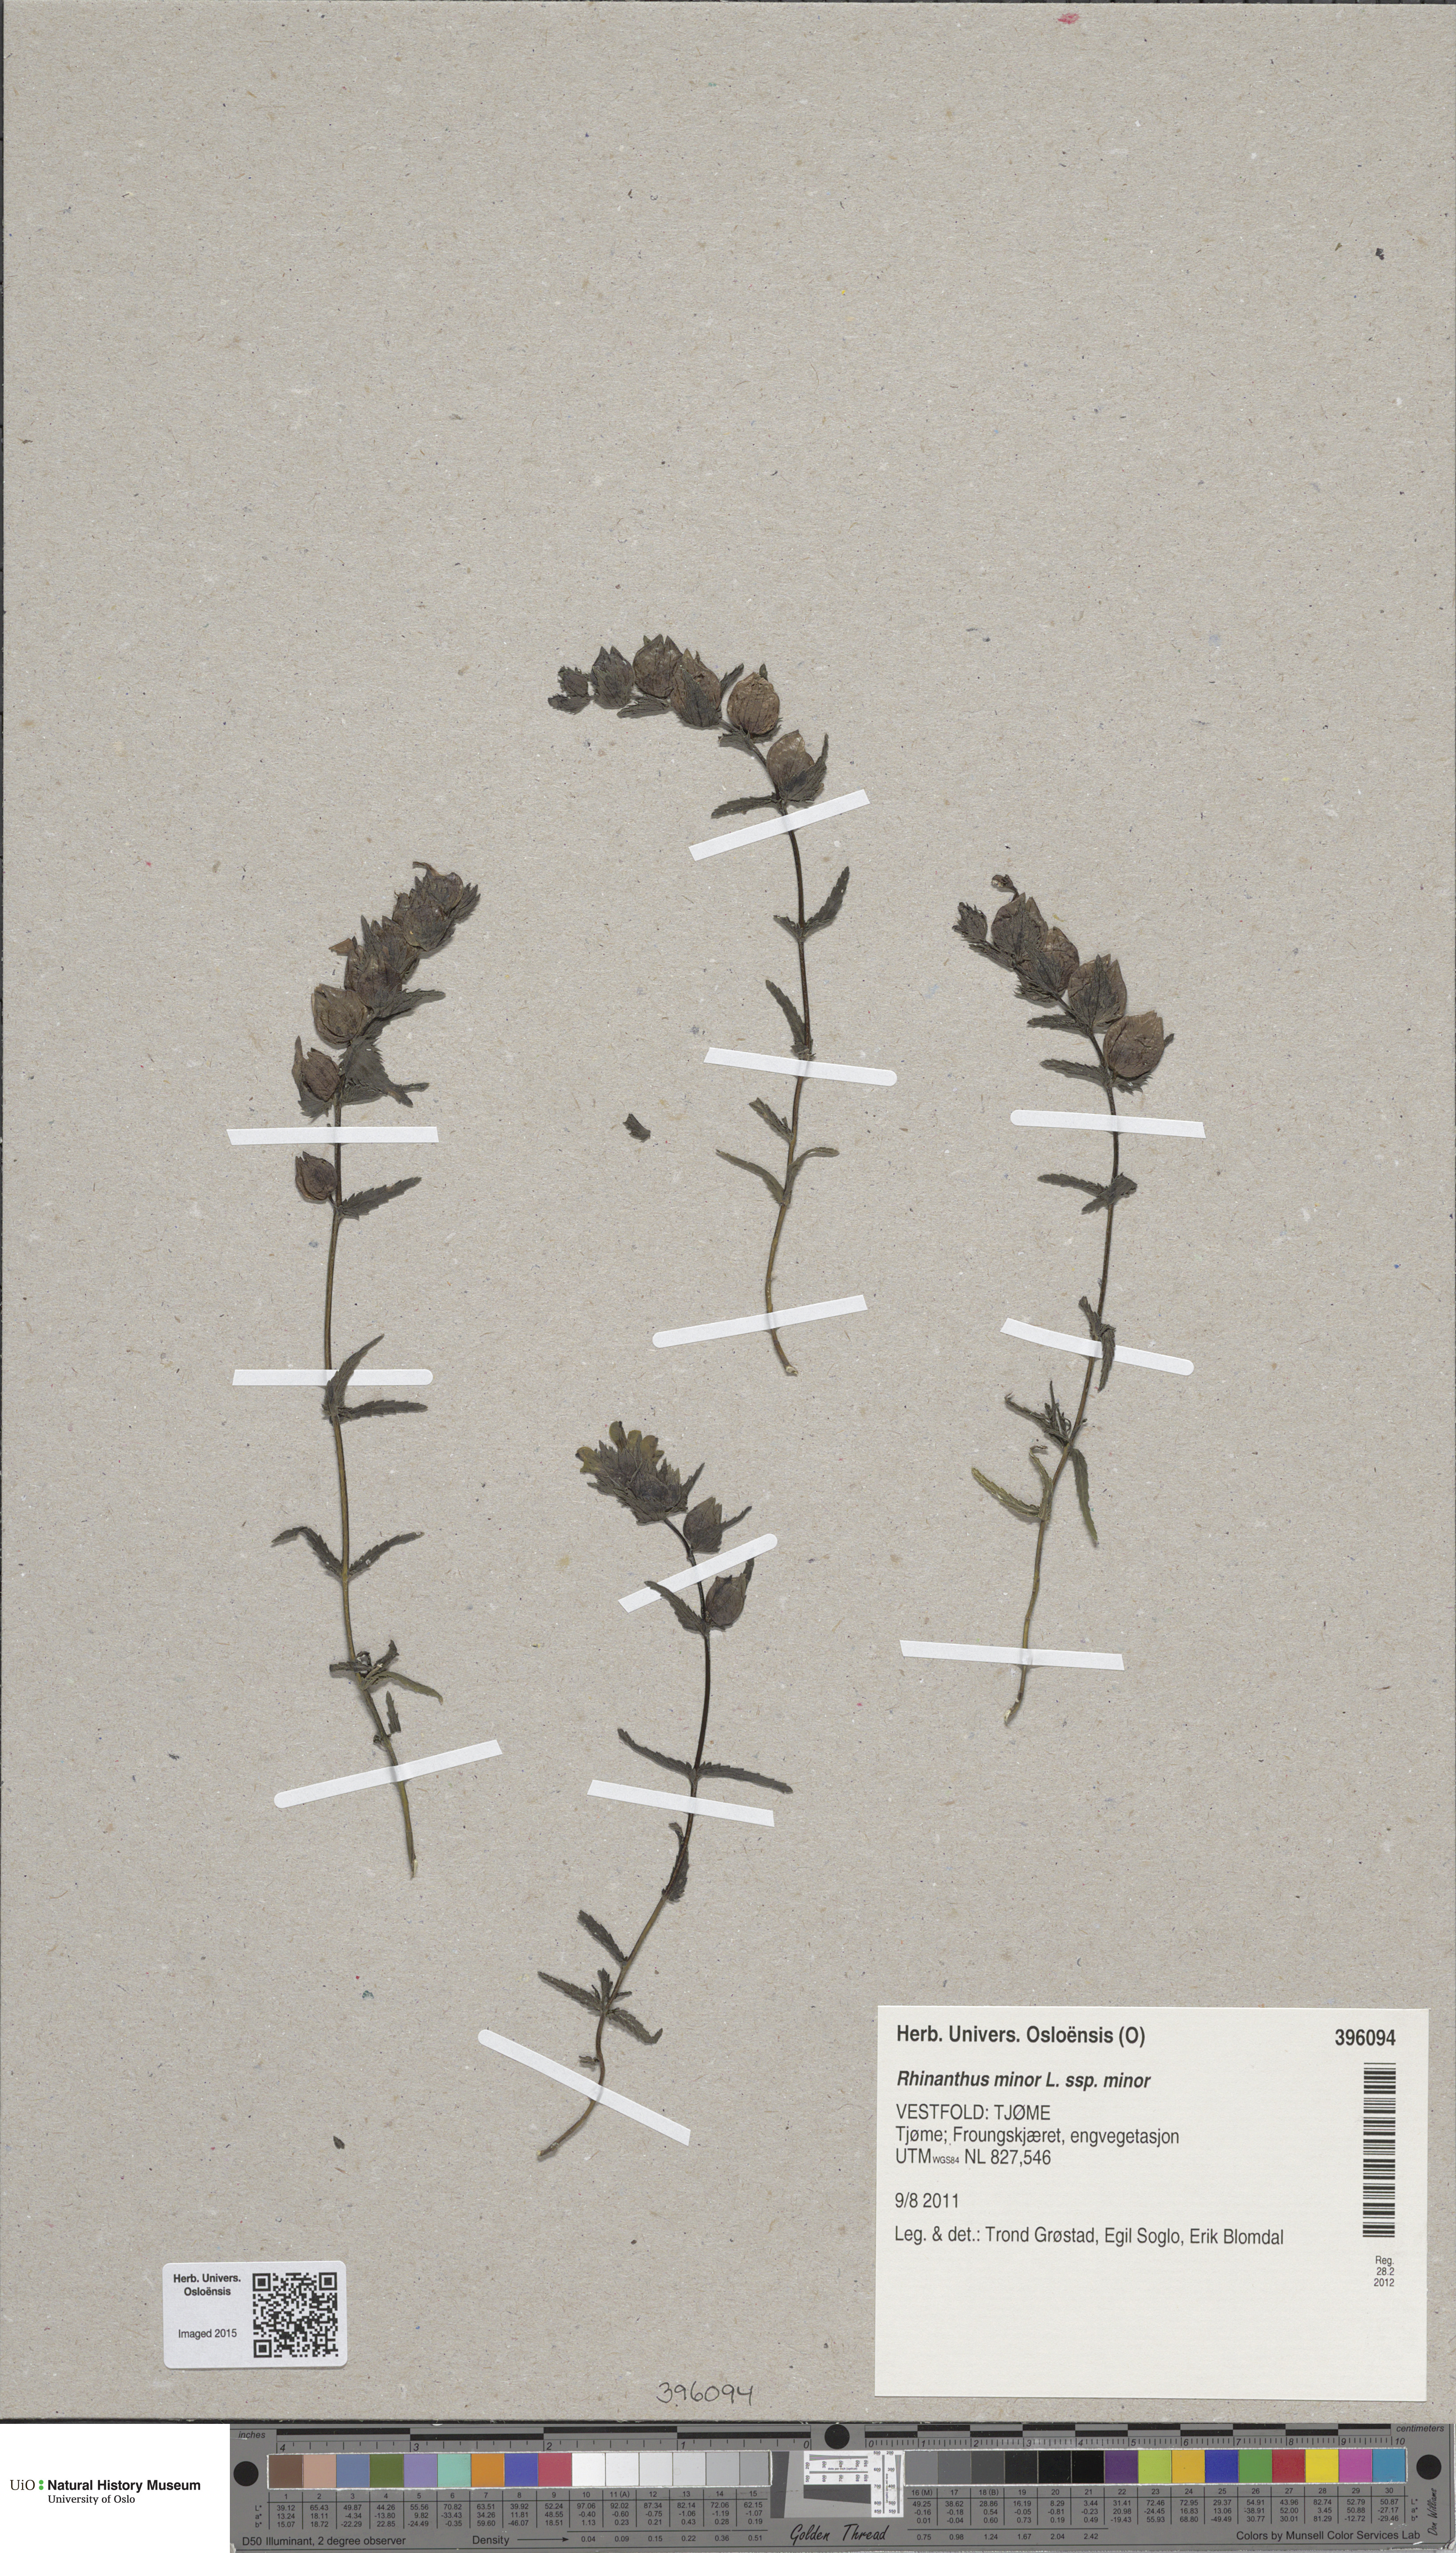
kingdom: Plantae
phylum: Tracheophyta
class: Magnoliopsida
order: Lamiales
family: Orobanchaceae
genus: Rhinanthus
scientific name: Rhinanthus minor
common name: Yellow-rattle
